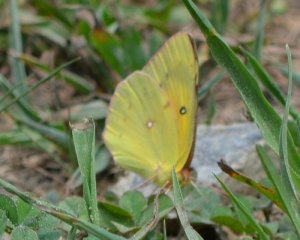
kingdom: Animalia
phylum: Arthropoda
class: Insecta
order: Lepidoptera
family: Pieridae
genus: Colias
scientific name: Colias eurytheme
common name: Orange Sulphur
